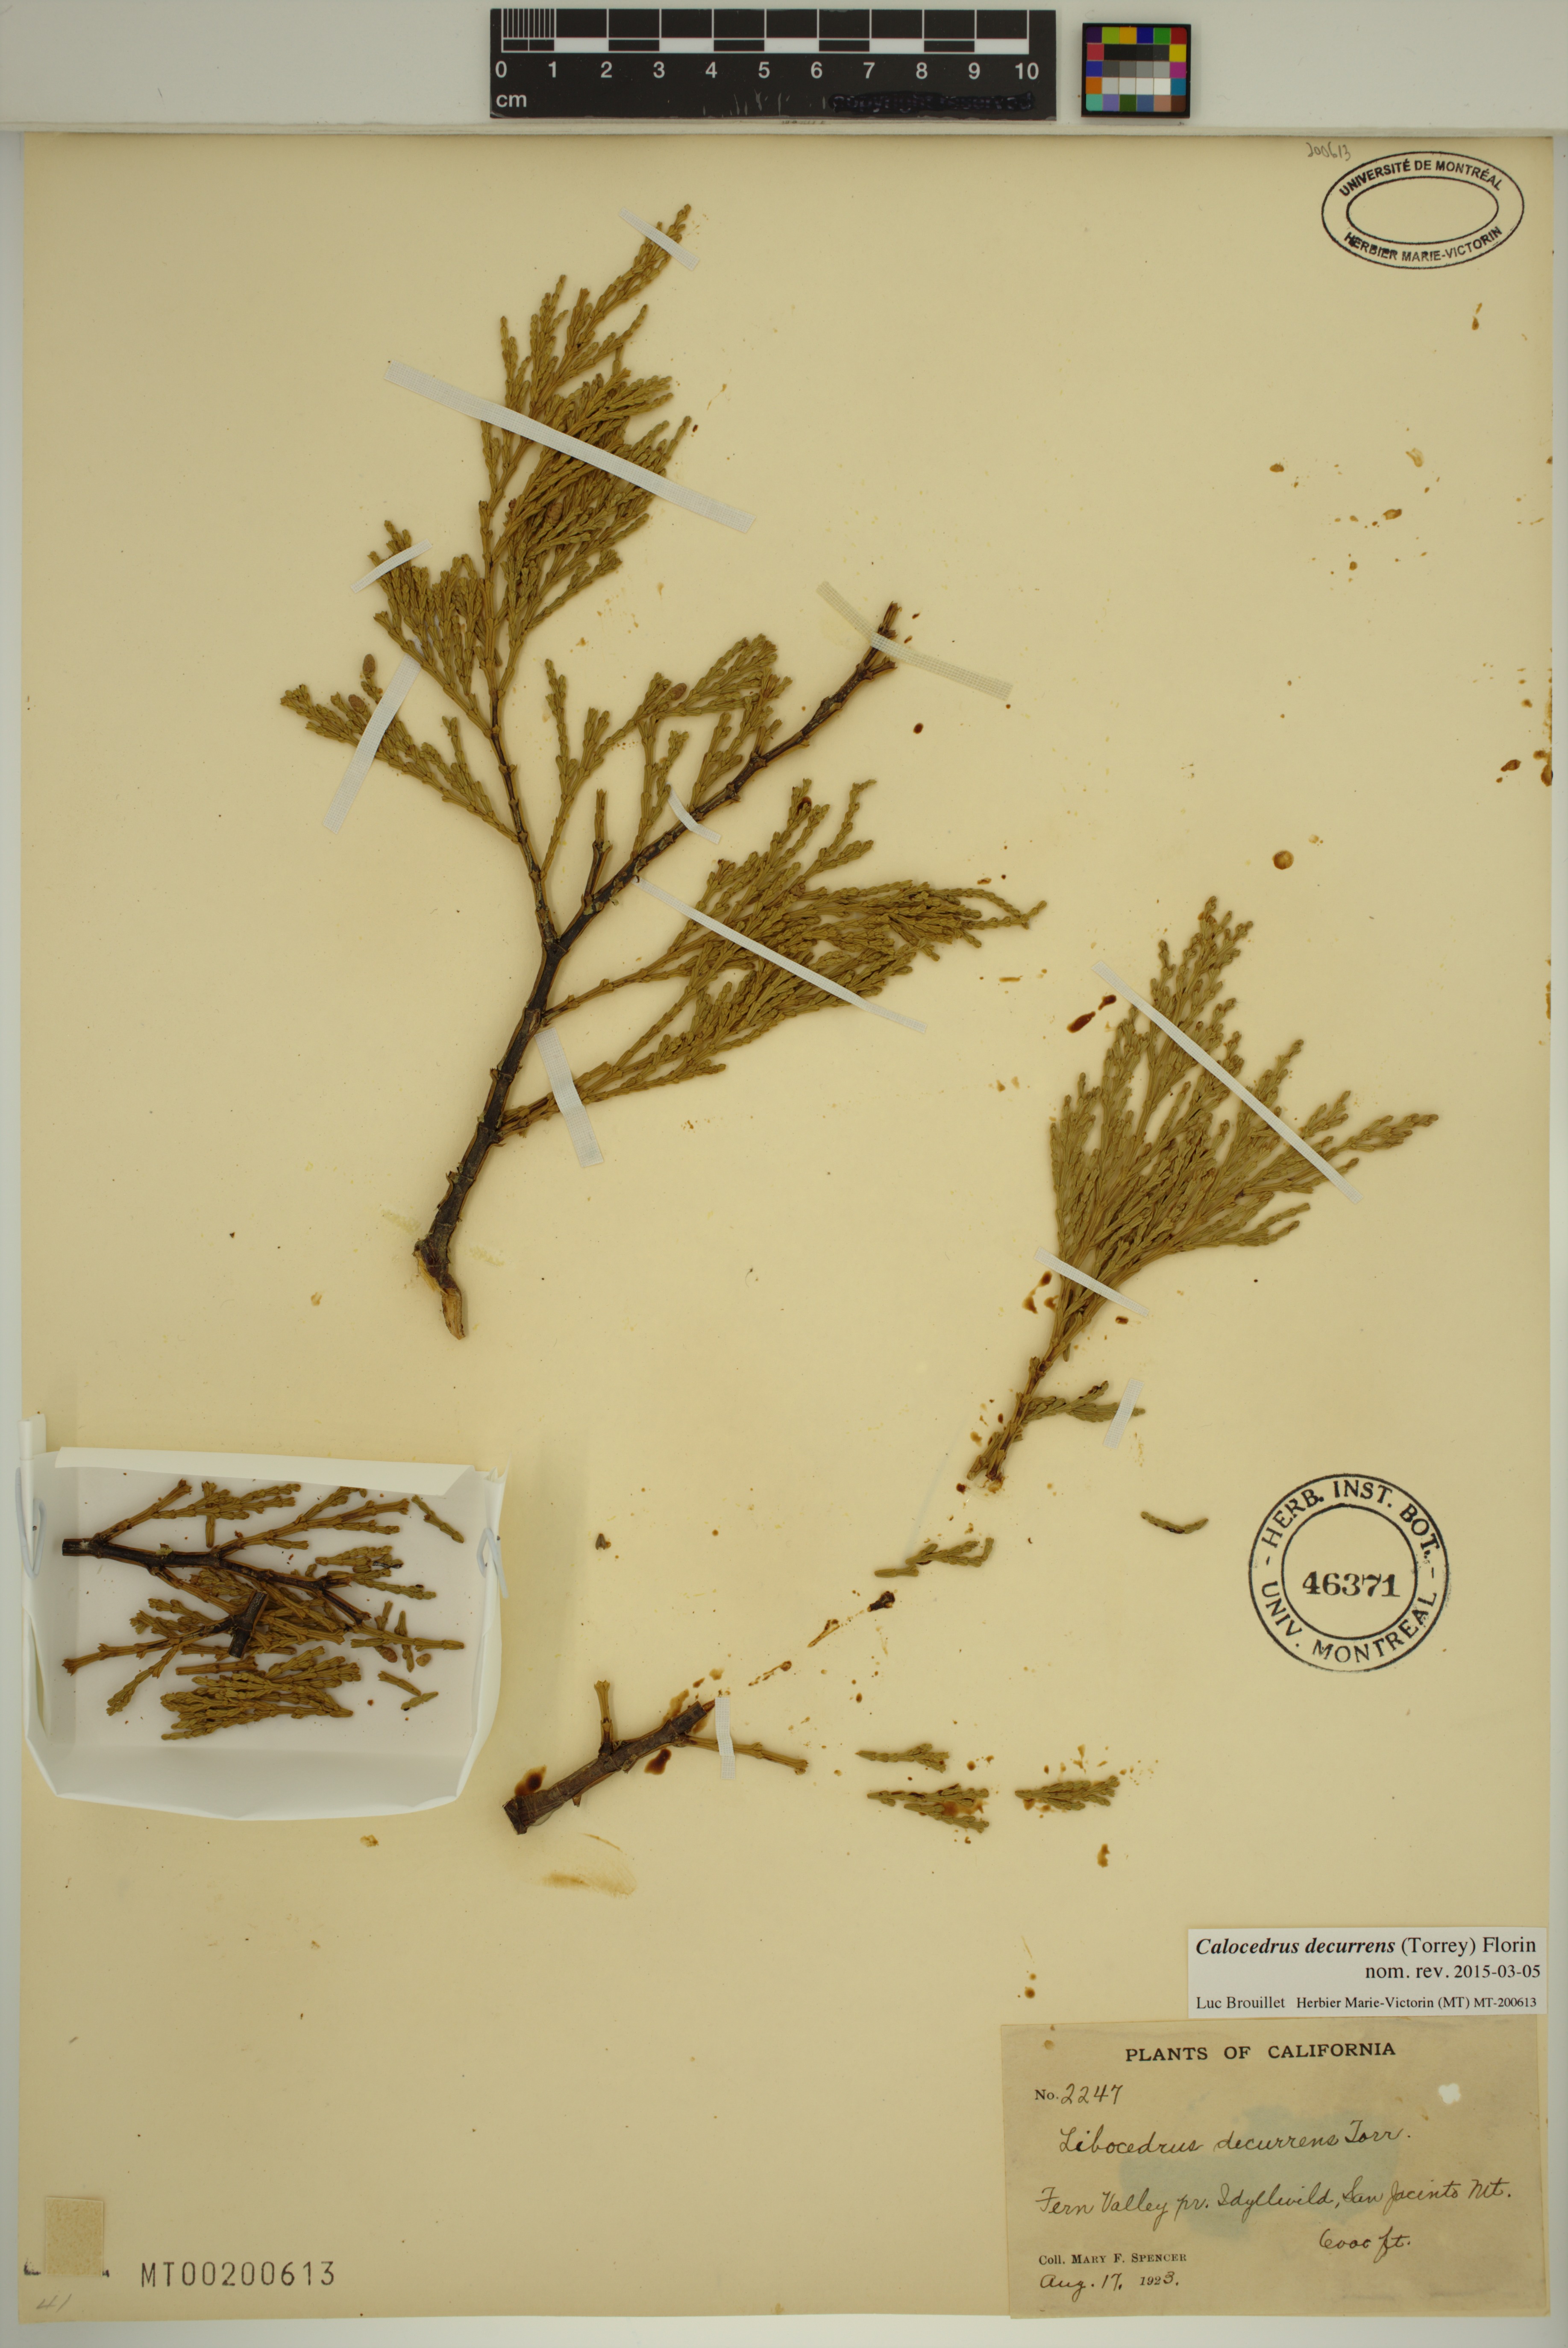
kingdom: Plantae
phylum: Tracheophyta
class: Pinopsida
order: Pinales
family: Cupressaceae
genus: Calocedrus
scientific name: Calocedrus decurrens
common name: Californian incense-cedar
